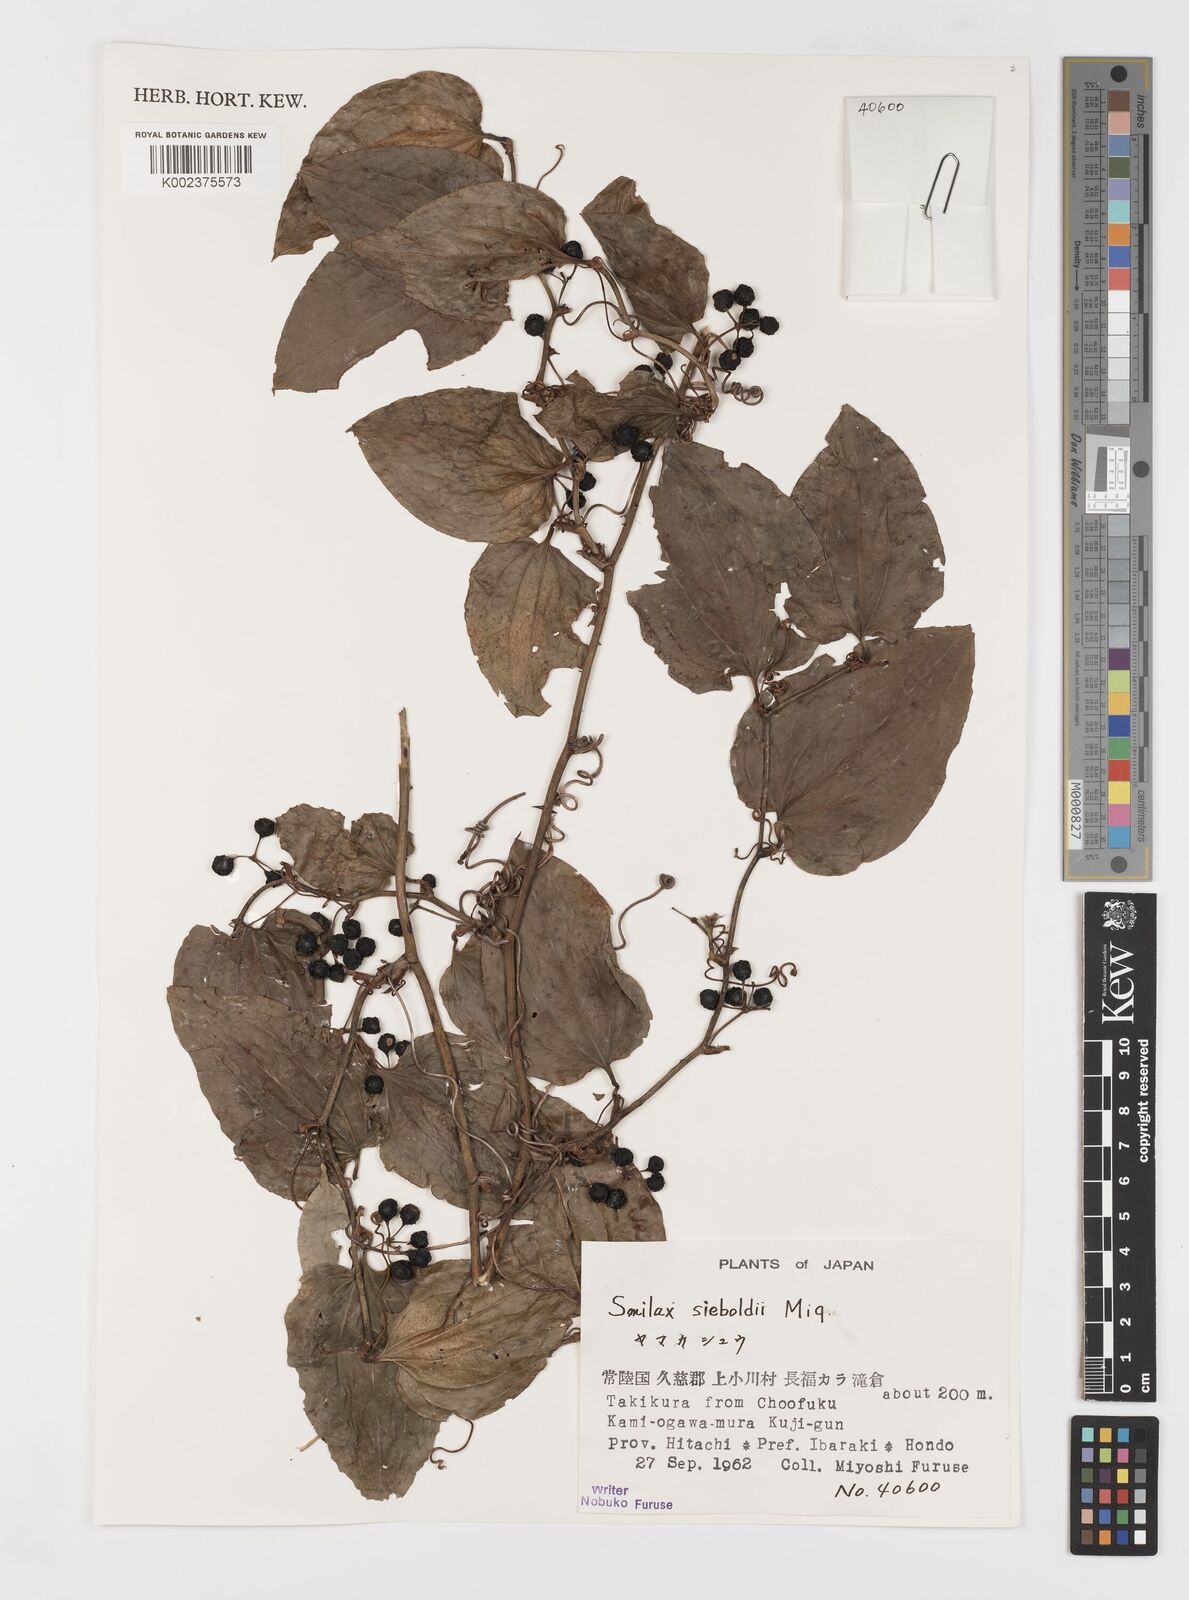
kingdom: Plantae
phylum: Tracheophyta
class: Liliopsida
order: Liliales
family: Smilacaceae
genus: Smilax
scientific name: Smilax sieboldii
